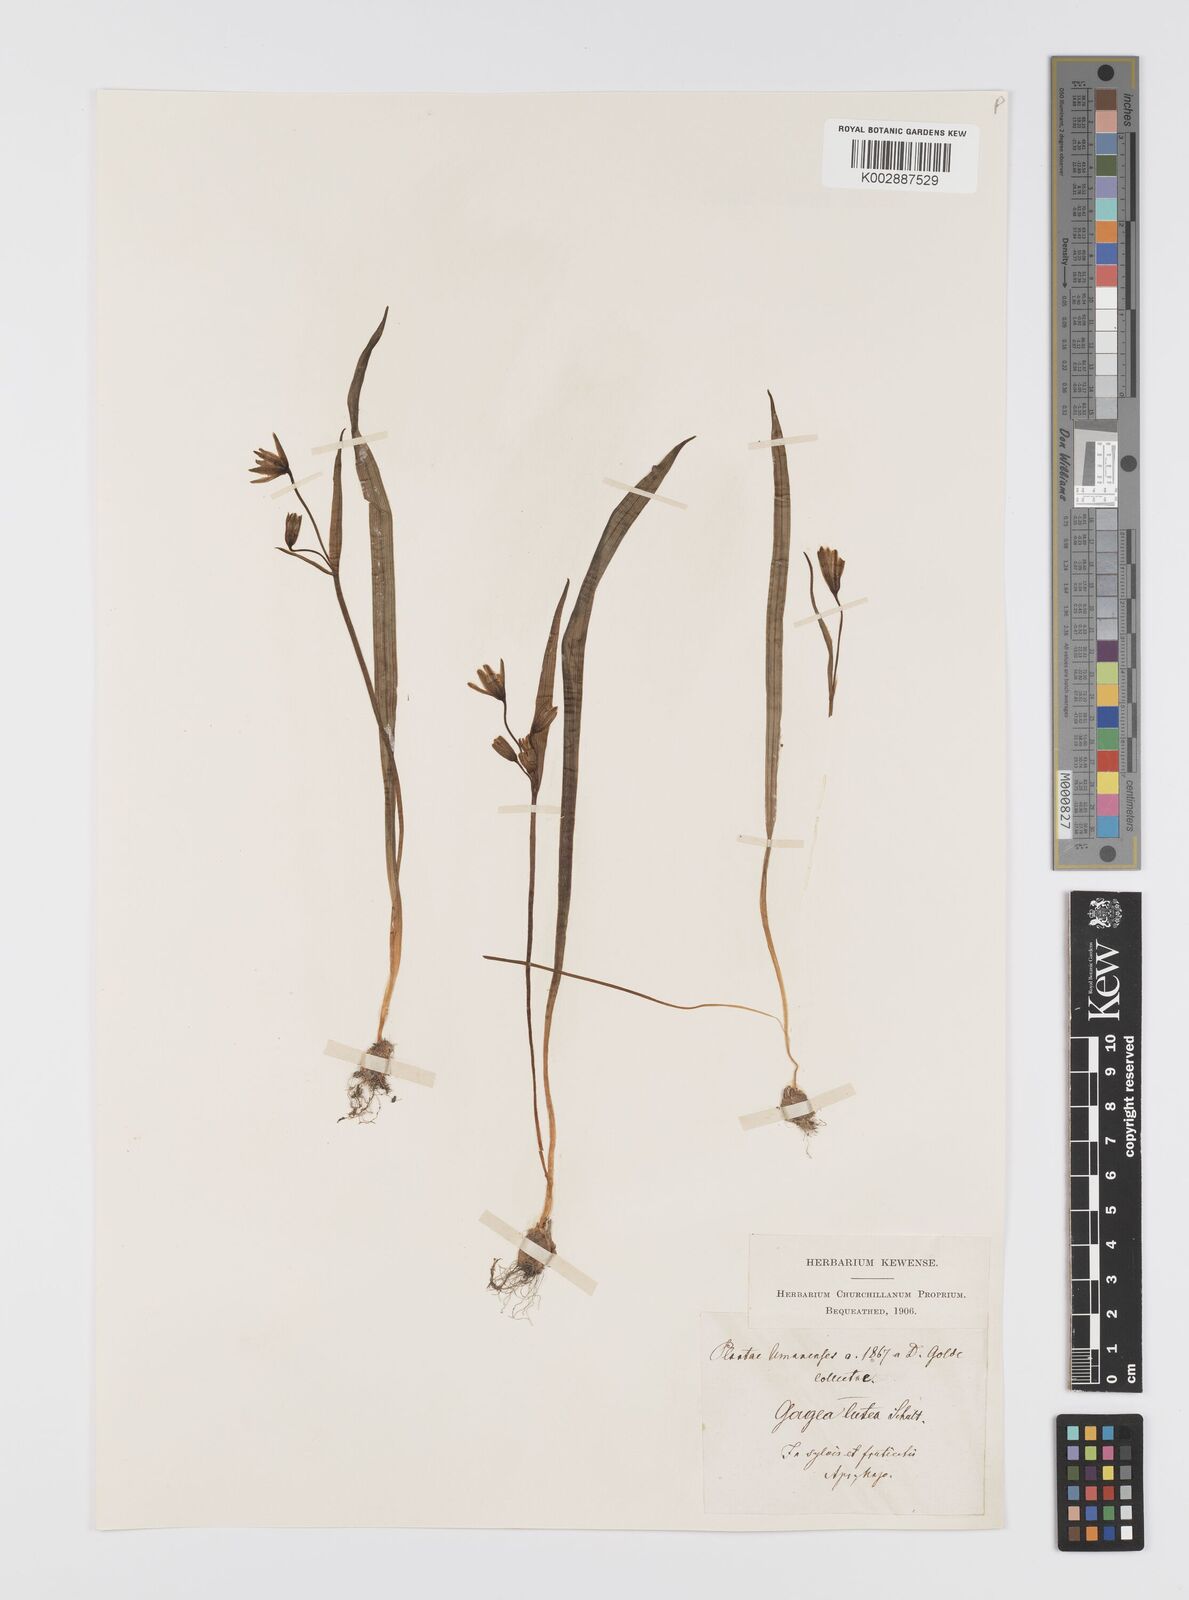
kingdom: Plantae
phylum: Tracheophyta
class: Liliopsida
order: Liliales
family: Liliaceae
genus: Gagea
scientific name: Gagea lutea
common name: Yellow star-of-bethlehem
